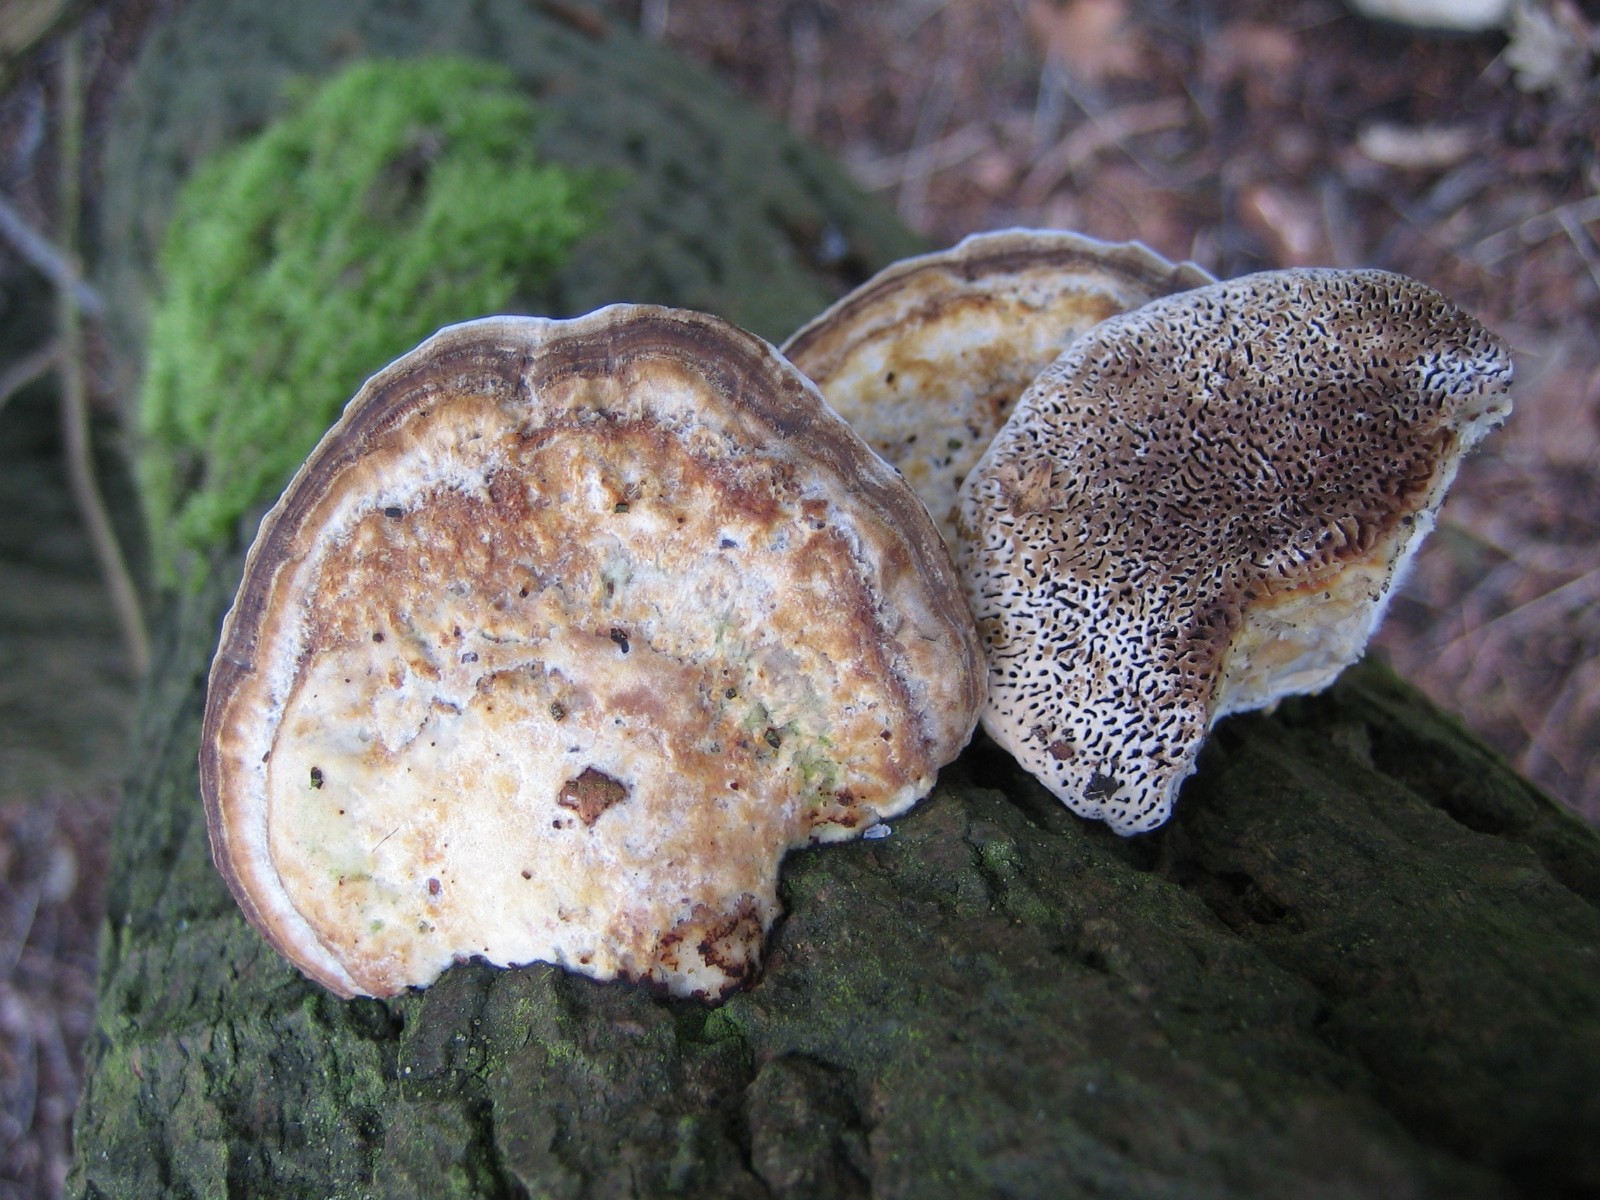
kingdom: Fungi
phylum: Basidiomycota
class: Agaricomycetes
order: Polyporales
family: Polyporaceae
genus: Daedaleopsis
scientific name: Daedaleopsis confragosa
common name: rødmende læderporesvamp
